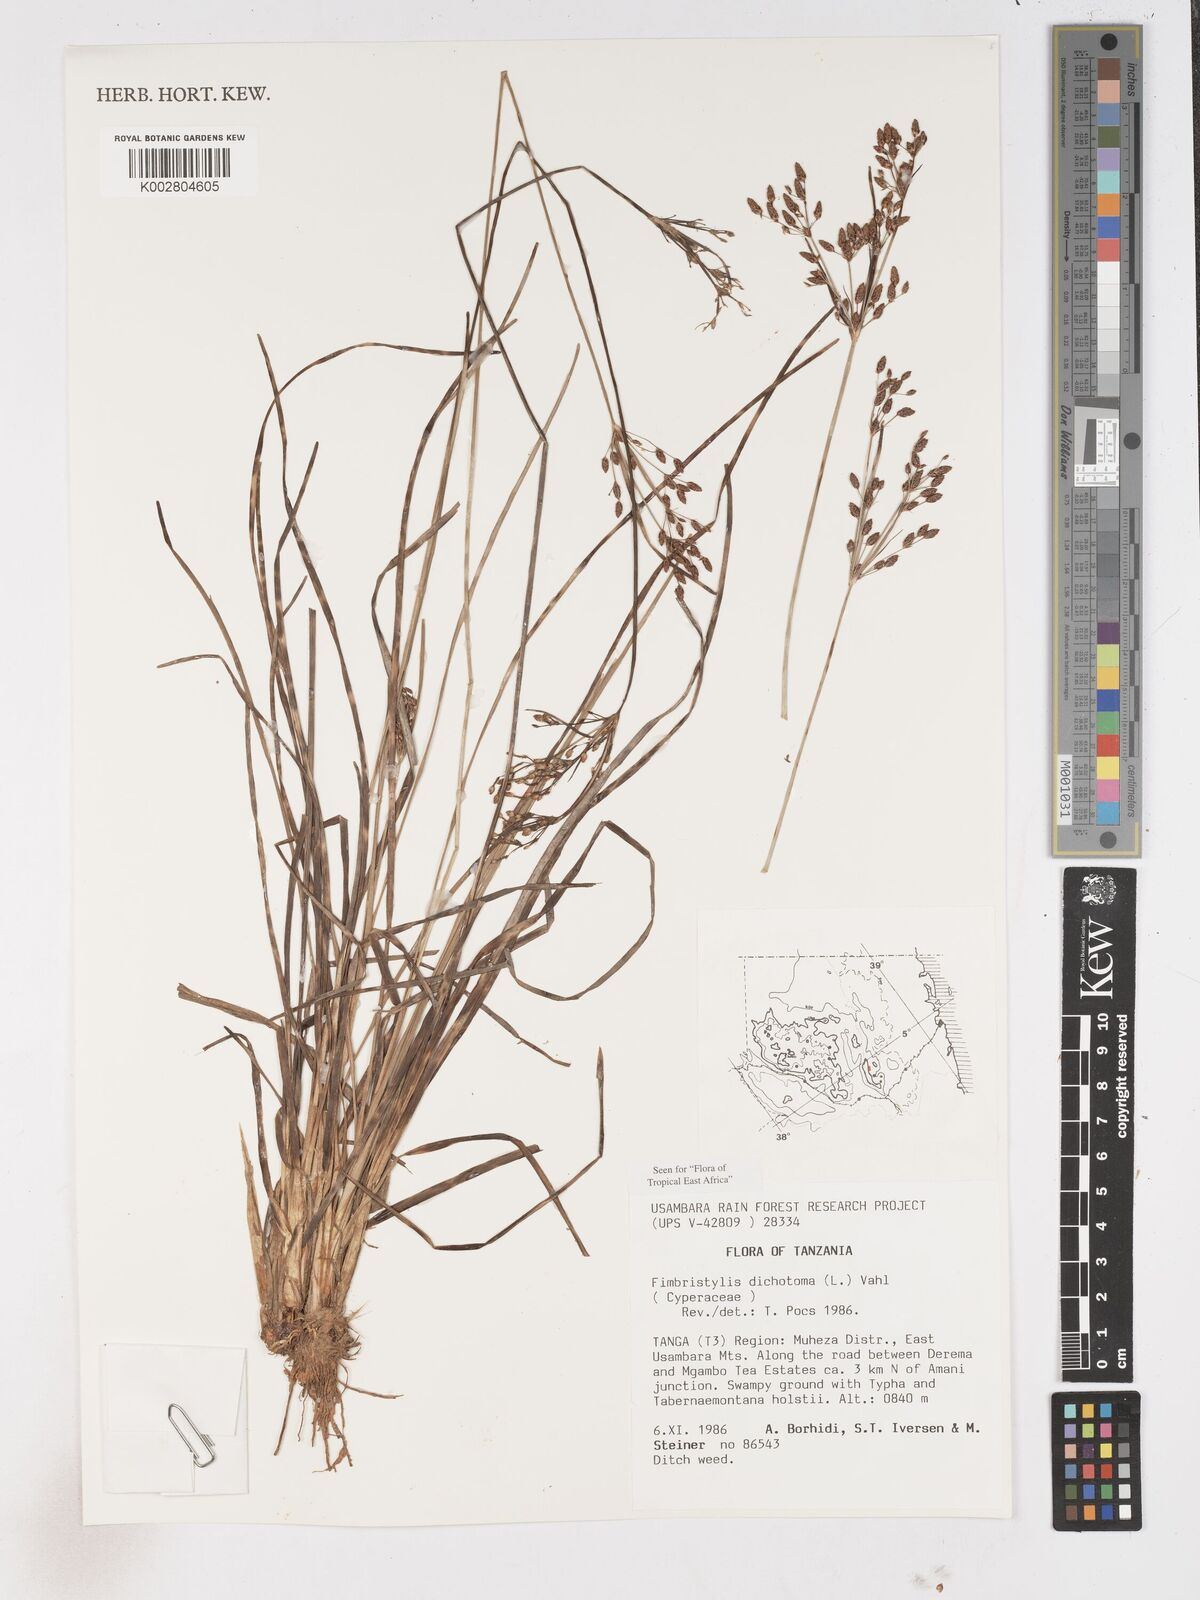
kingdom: Plantae
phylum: Tracheophyta
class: Liliopsida
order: Poales
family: Cyperaceae
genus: Fimbristylis
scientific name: Fimbristylis dichotoma
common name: Forked fimbry
